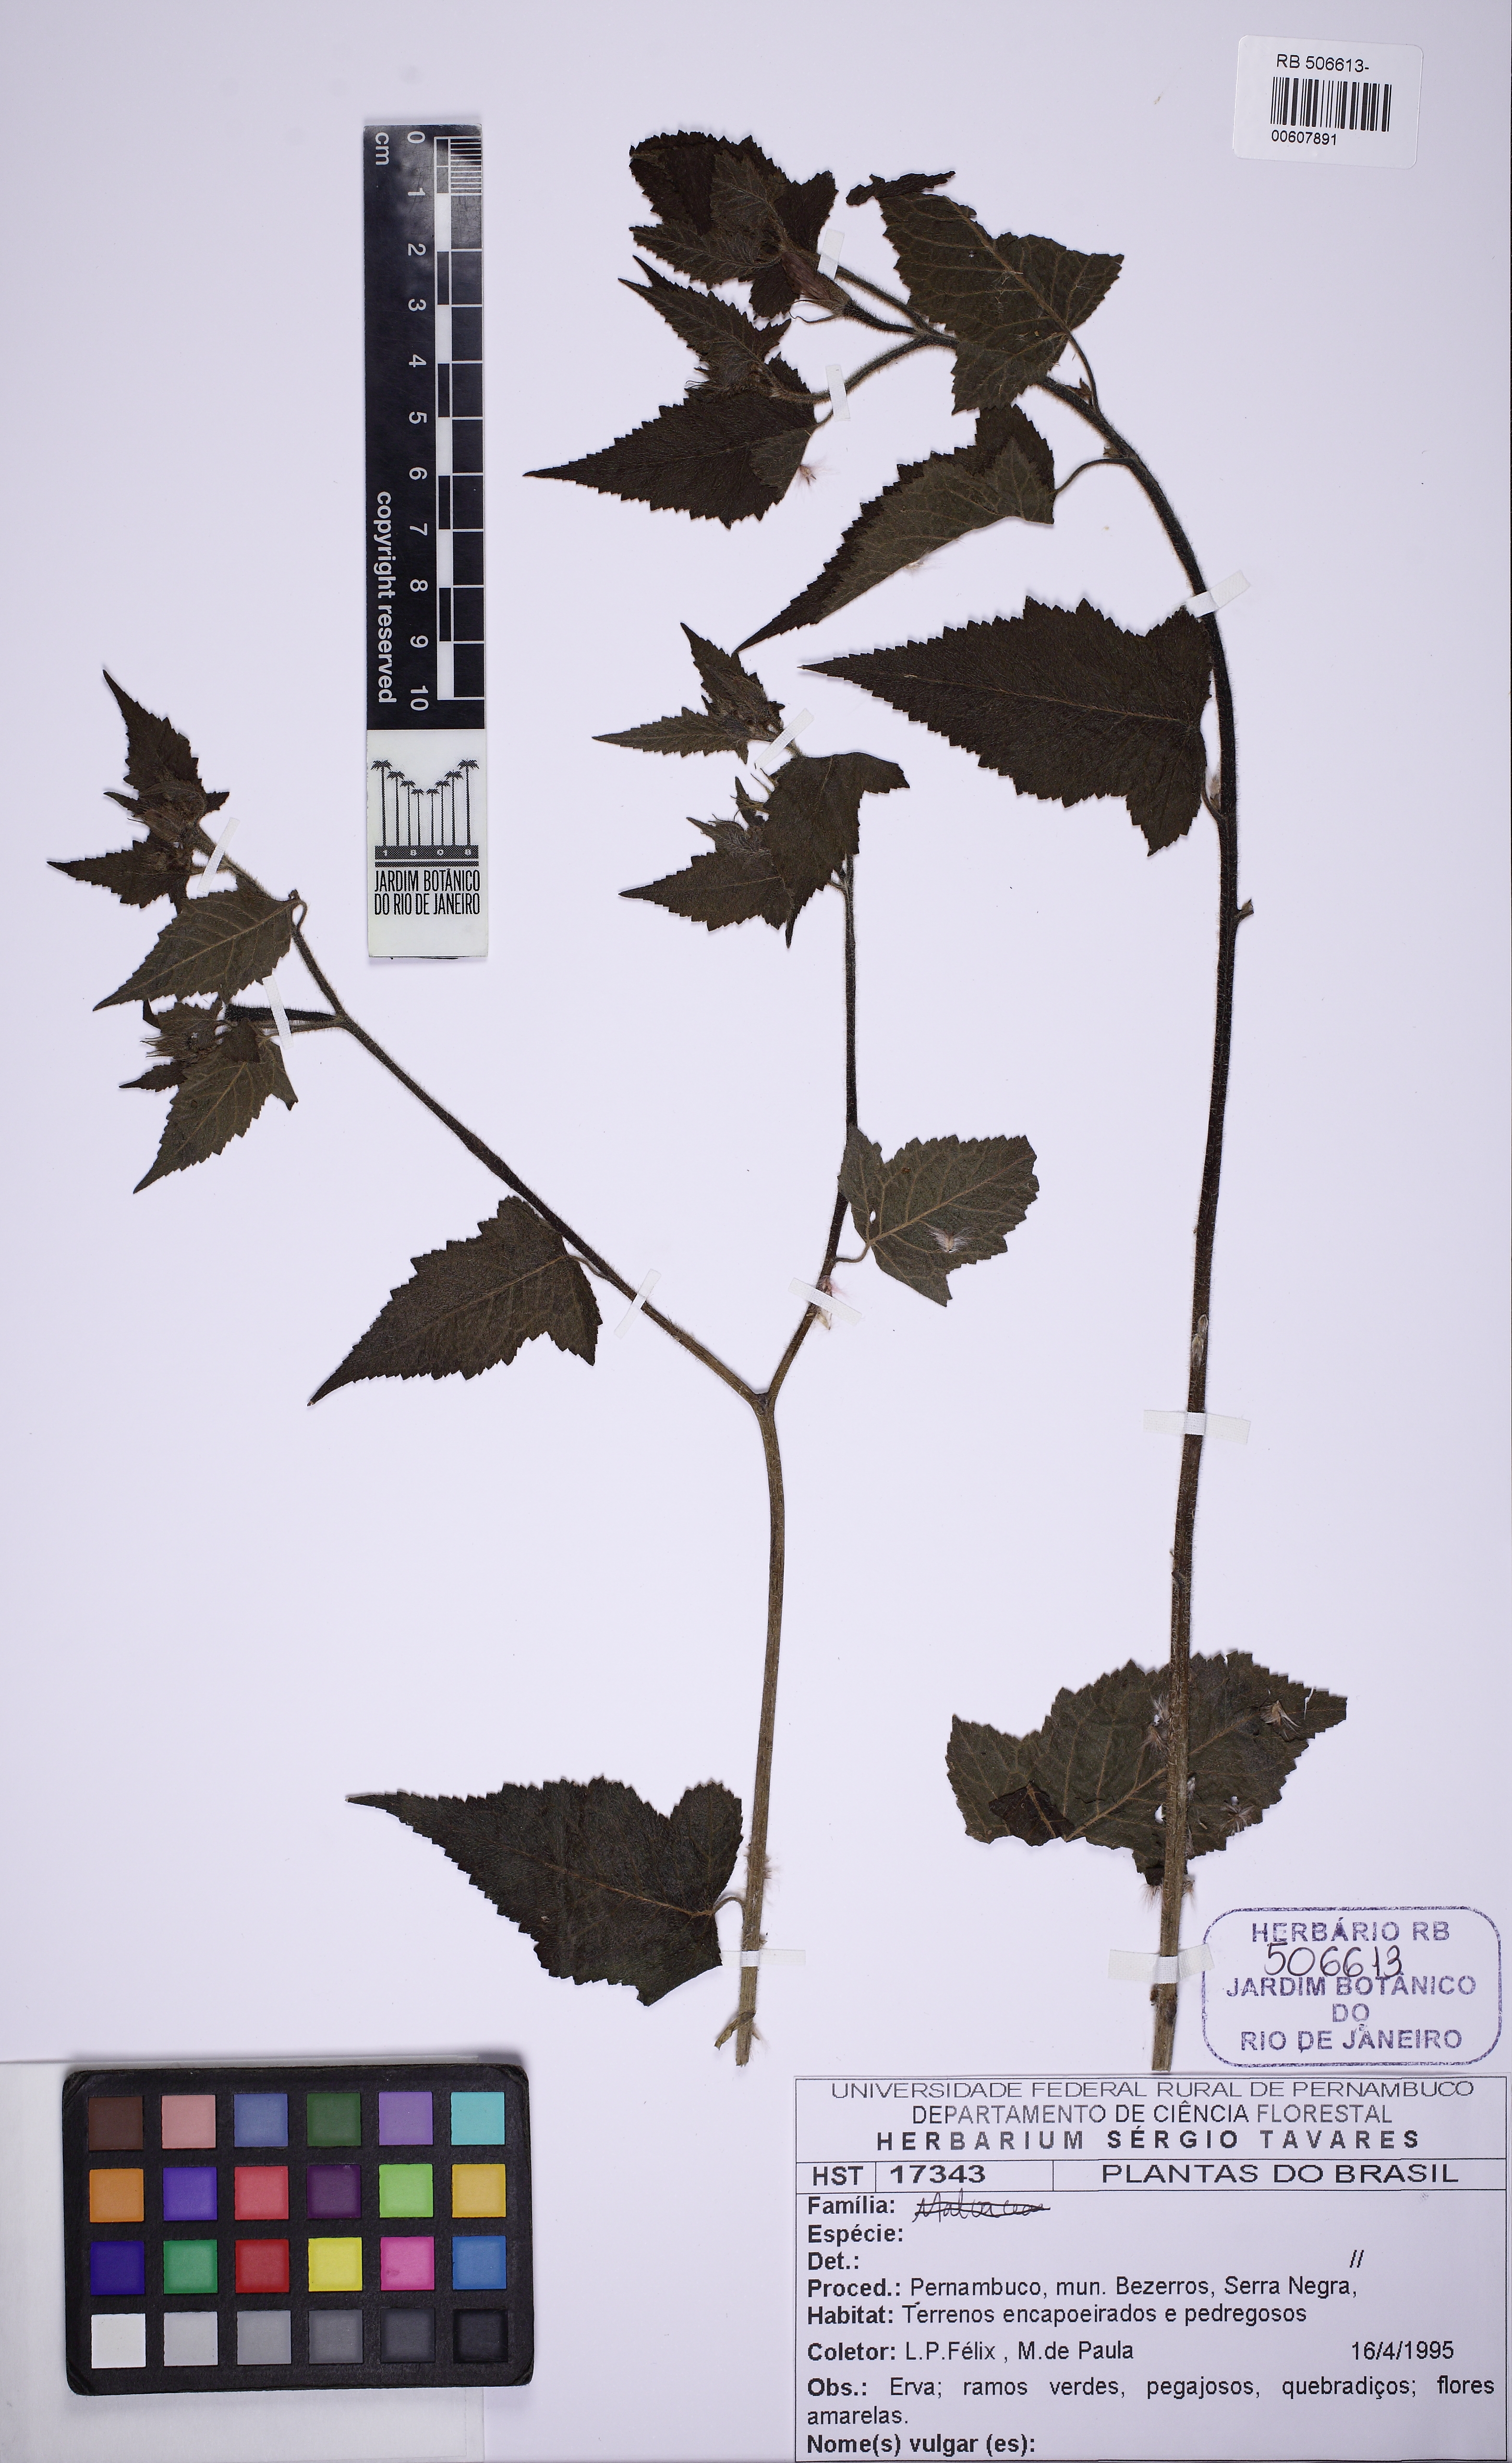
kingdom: Plantae
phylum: Tracheophyta
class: Magnoliopsida
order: Malvales
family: Malvaceae
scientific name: Malvaceae
